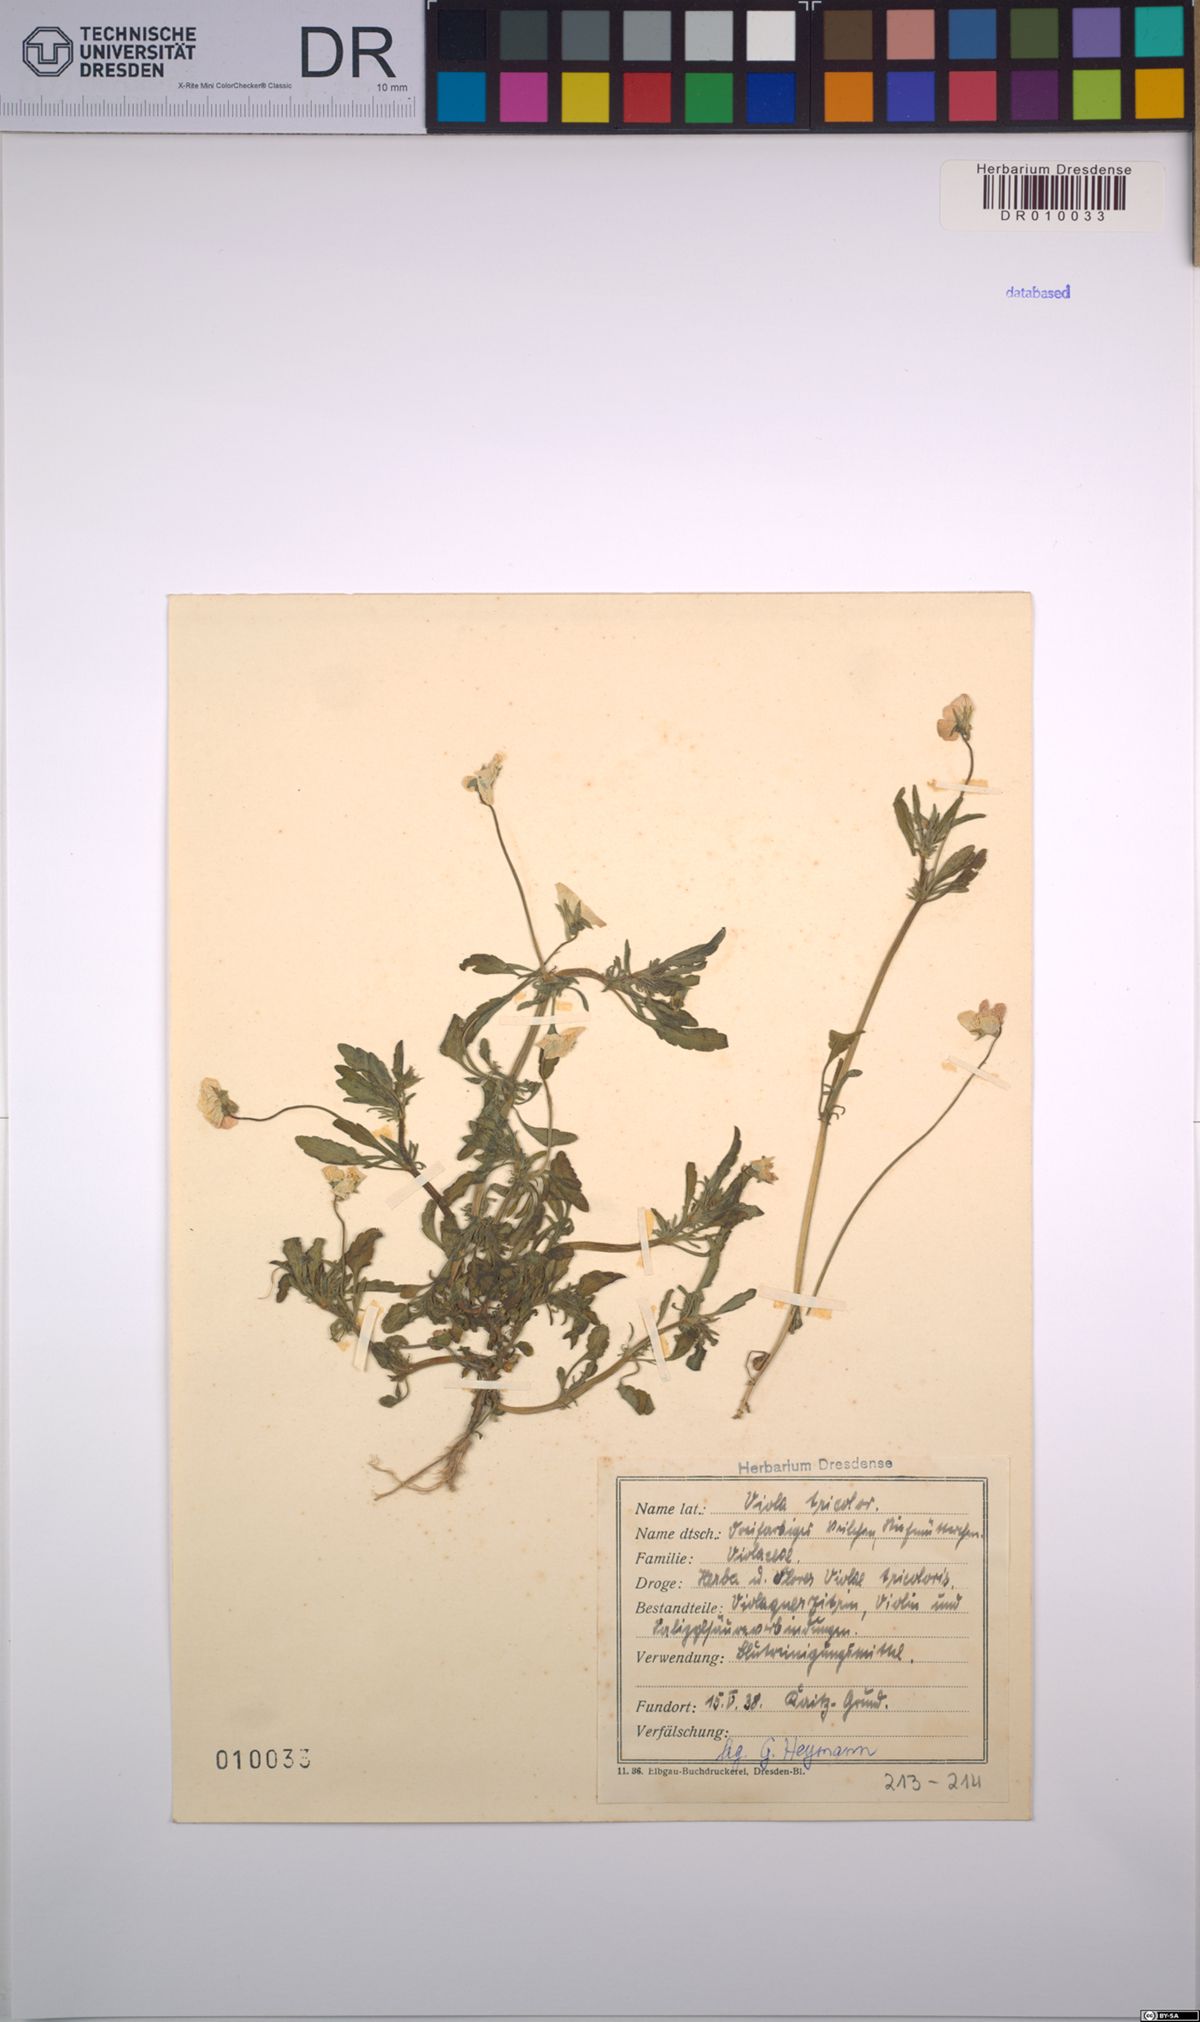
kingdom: Plantae
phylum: Tracheophyta
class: Magnoliopsida
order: Malpighiales
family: Violaceae
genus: Viola
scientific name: Viola tricolor
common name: Pansy
